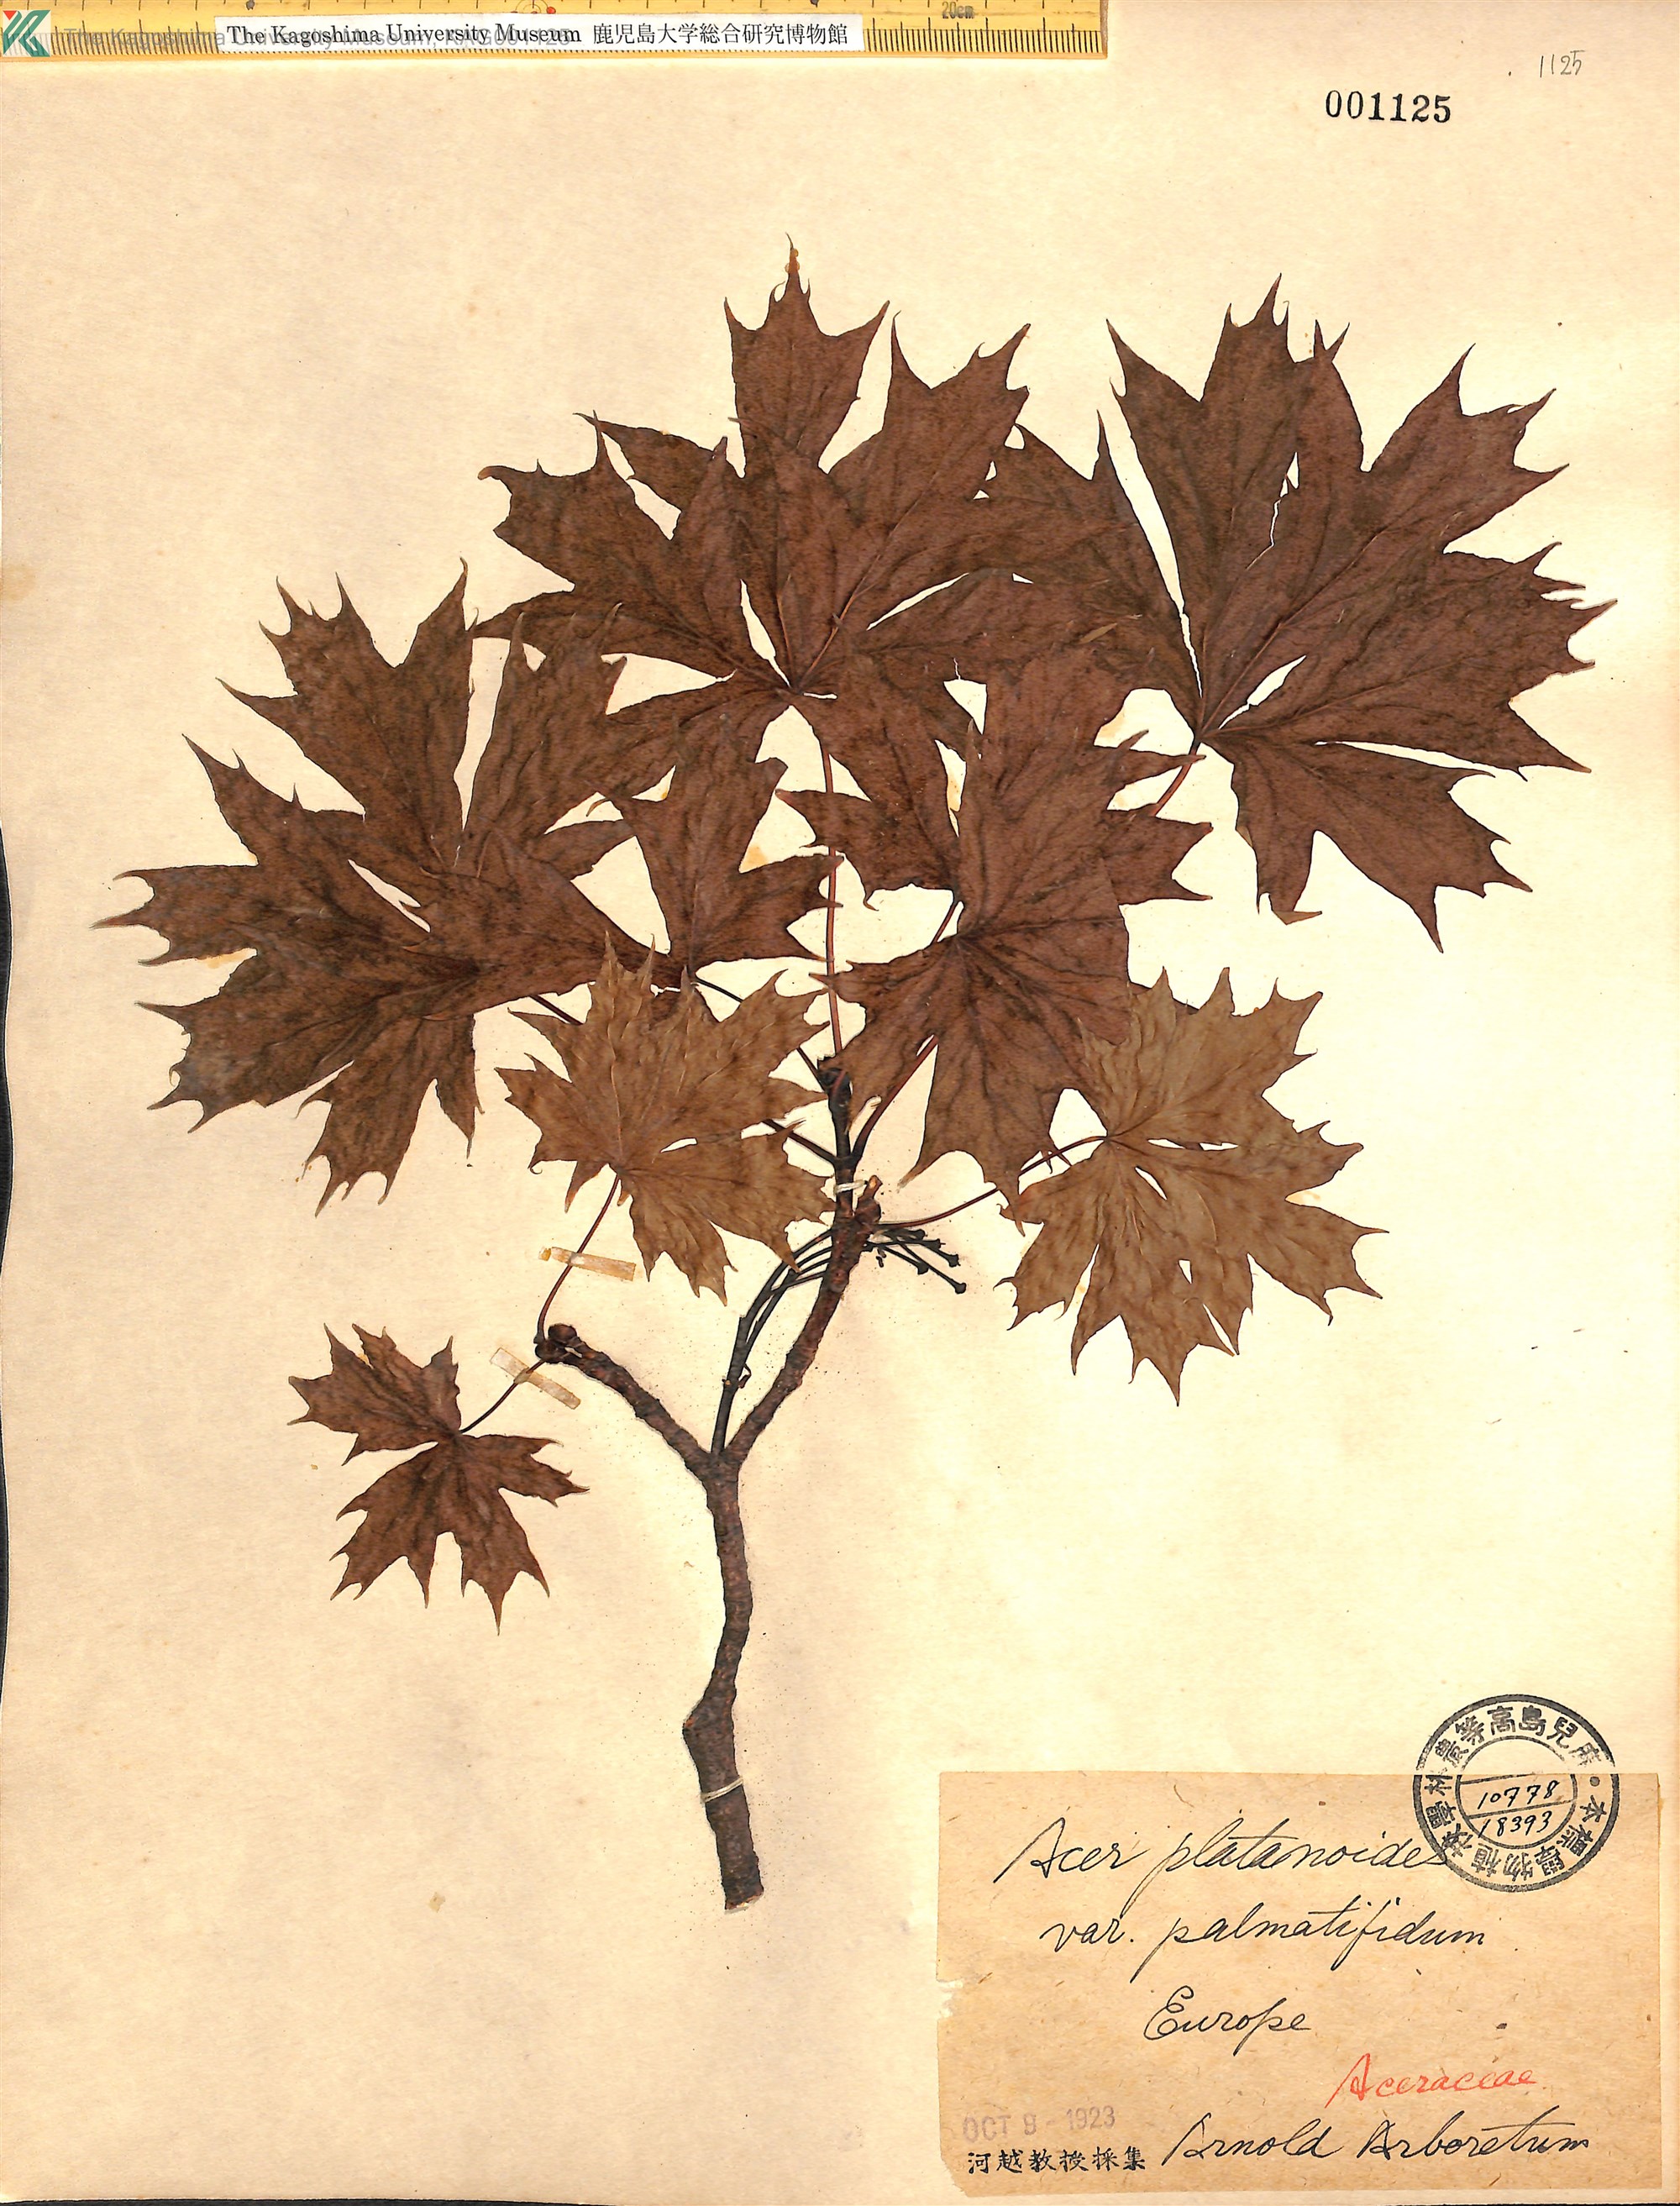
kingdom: Plantae
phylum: Tracheophyta
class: Magnoliopsida
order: Sapindales
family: Sapindaceae
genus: Acer
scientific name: Acer platanoides
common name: Norway maple
